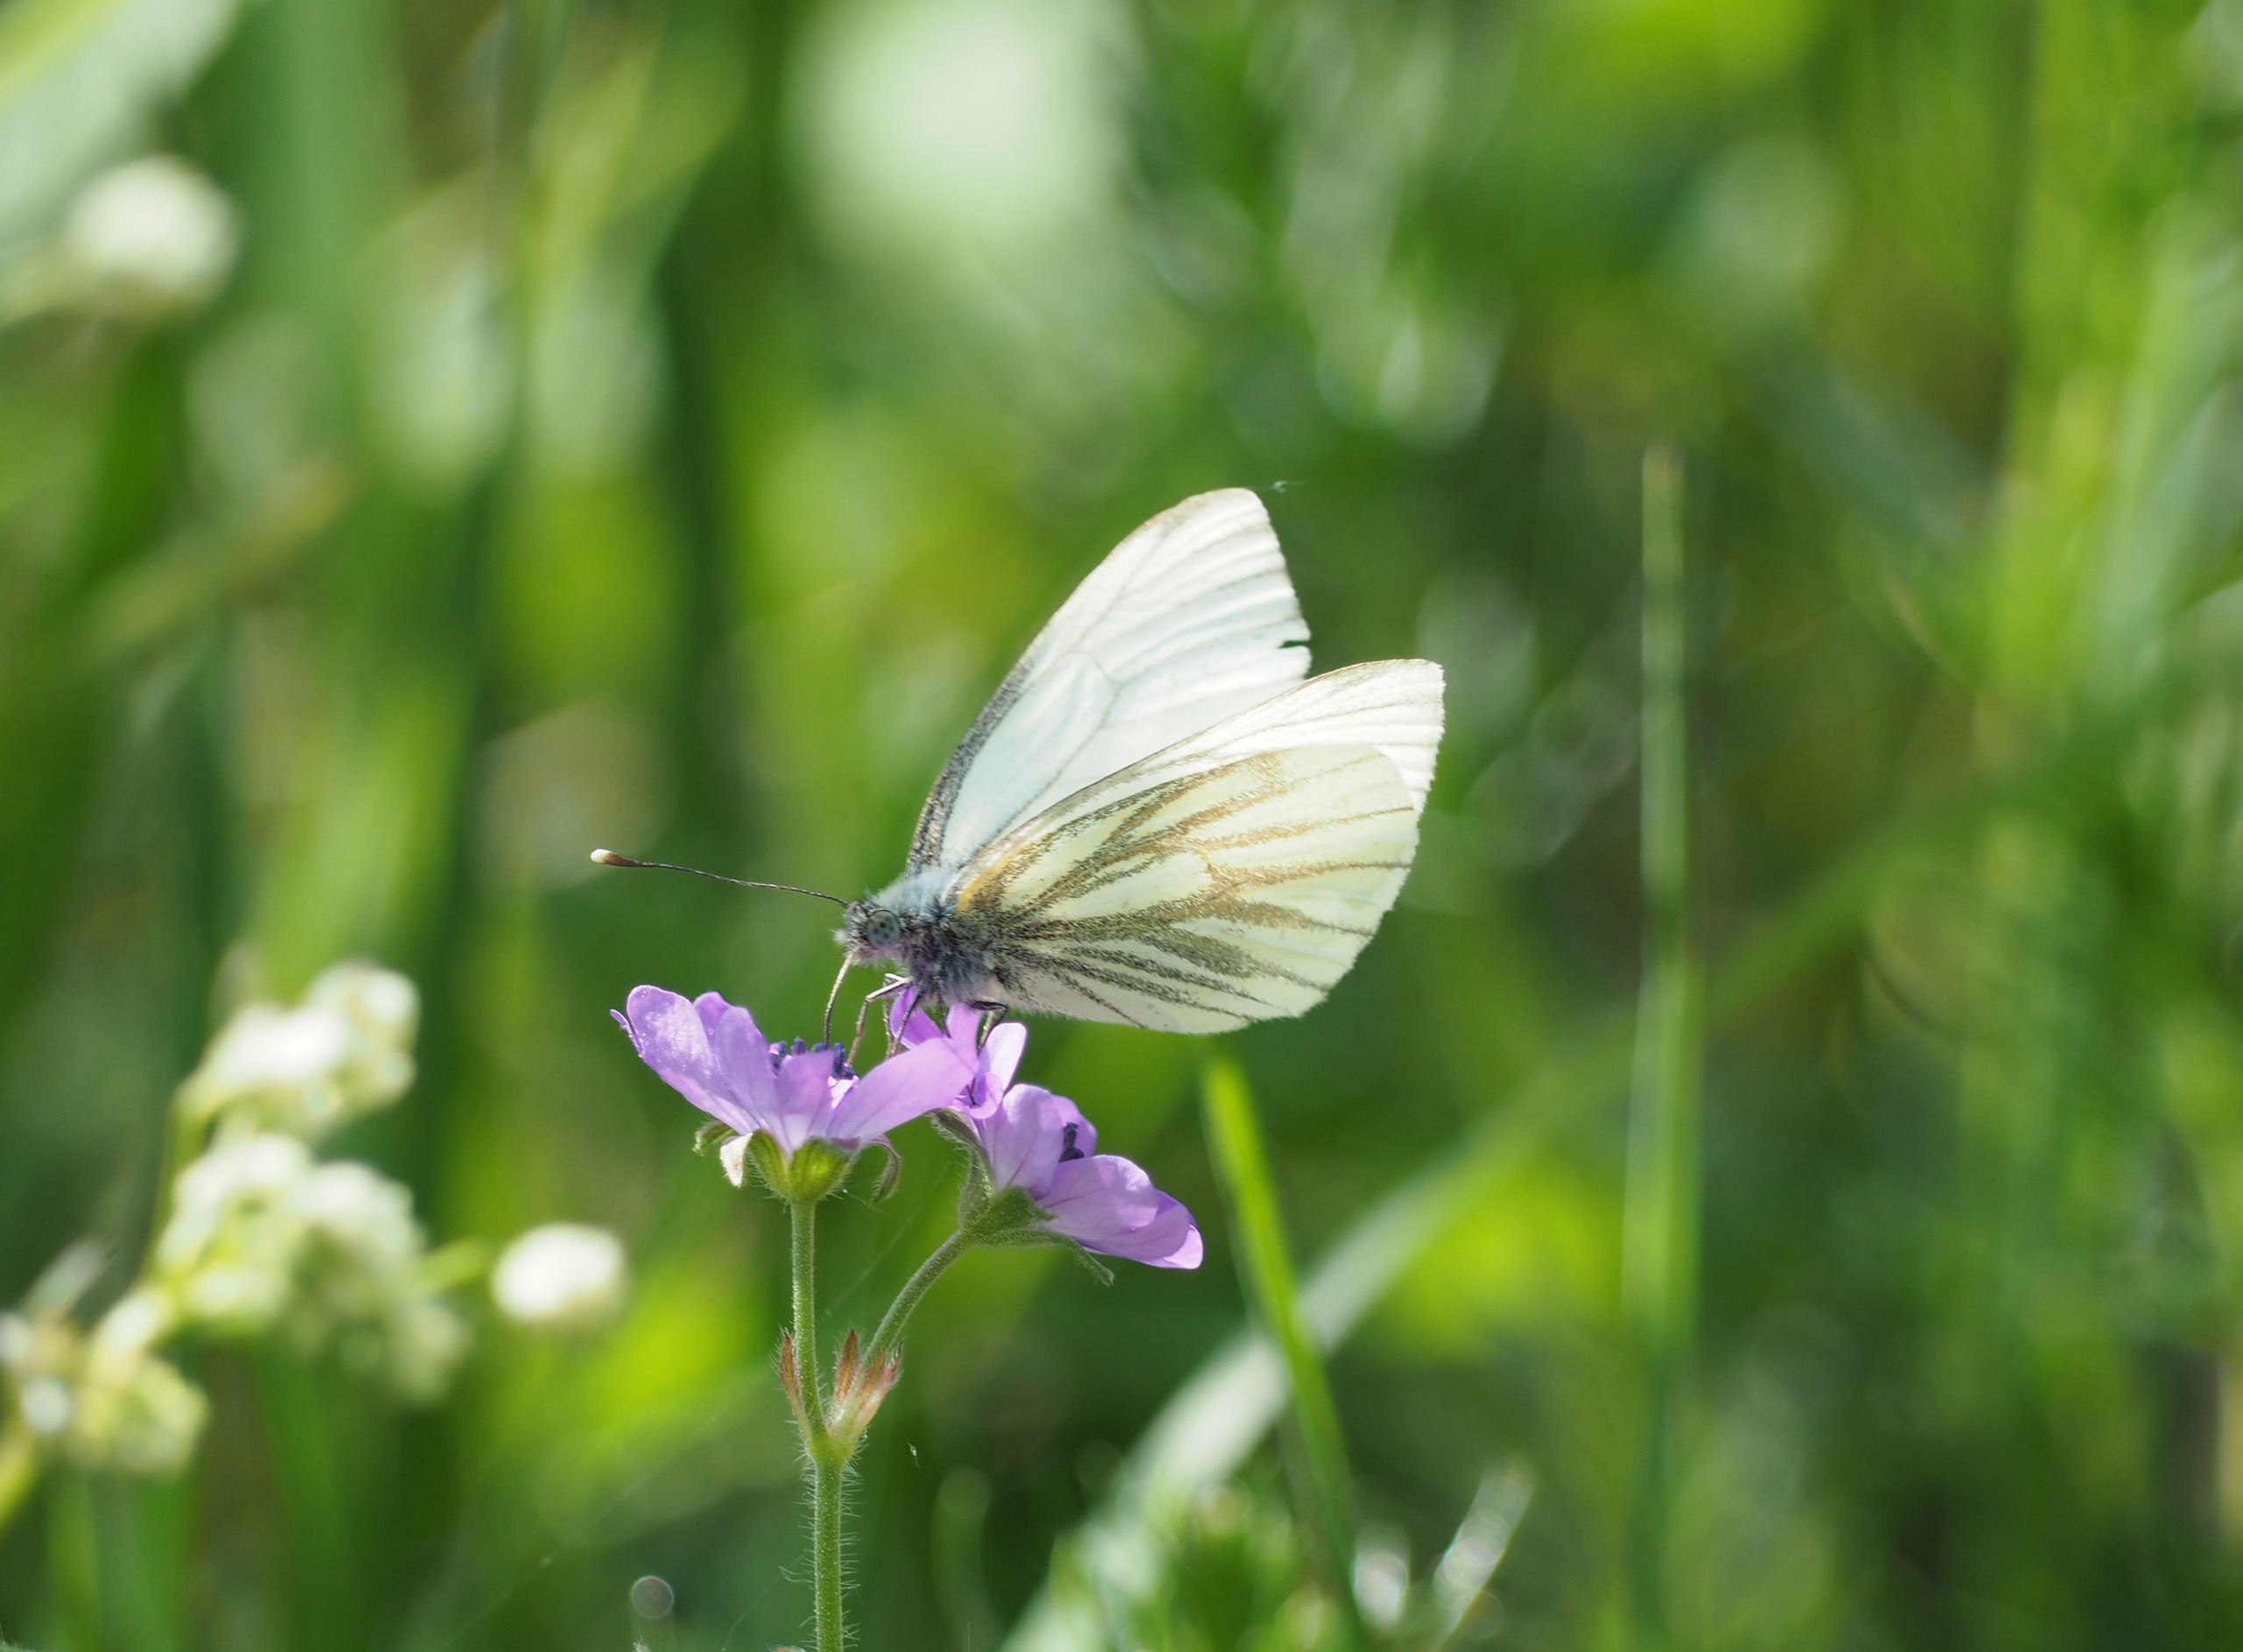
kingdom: Animalia
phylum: Arthropoda
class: Insecta
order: Lepidoptera
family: Pieridae
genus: Pieris
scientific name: Pieris napi
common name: Grønåret kålsommerfugl
